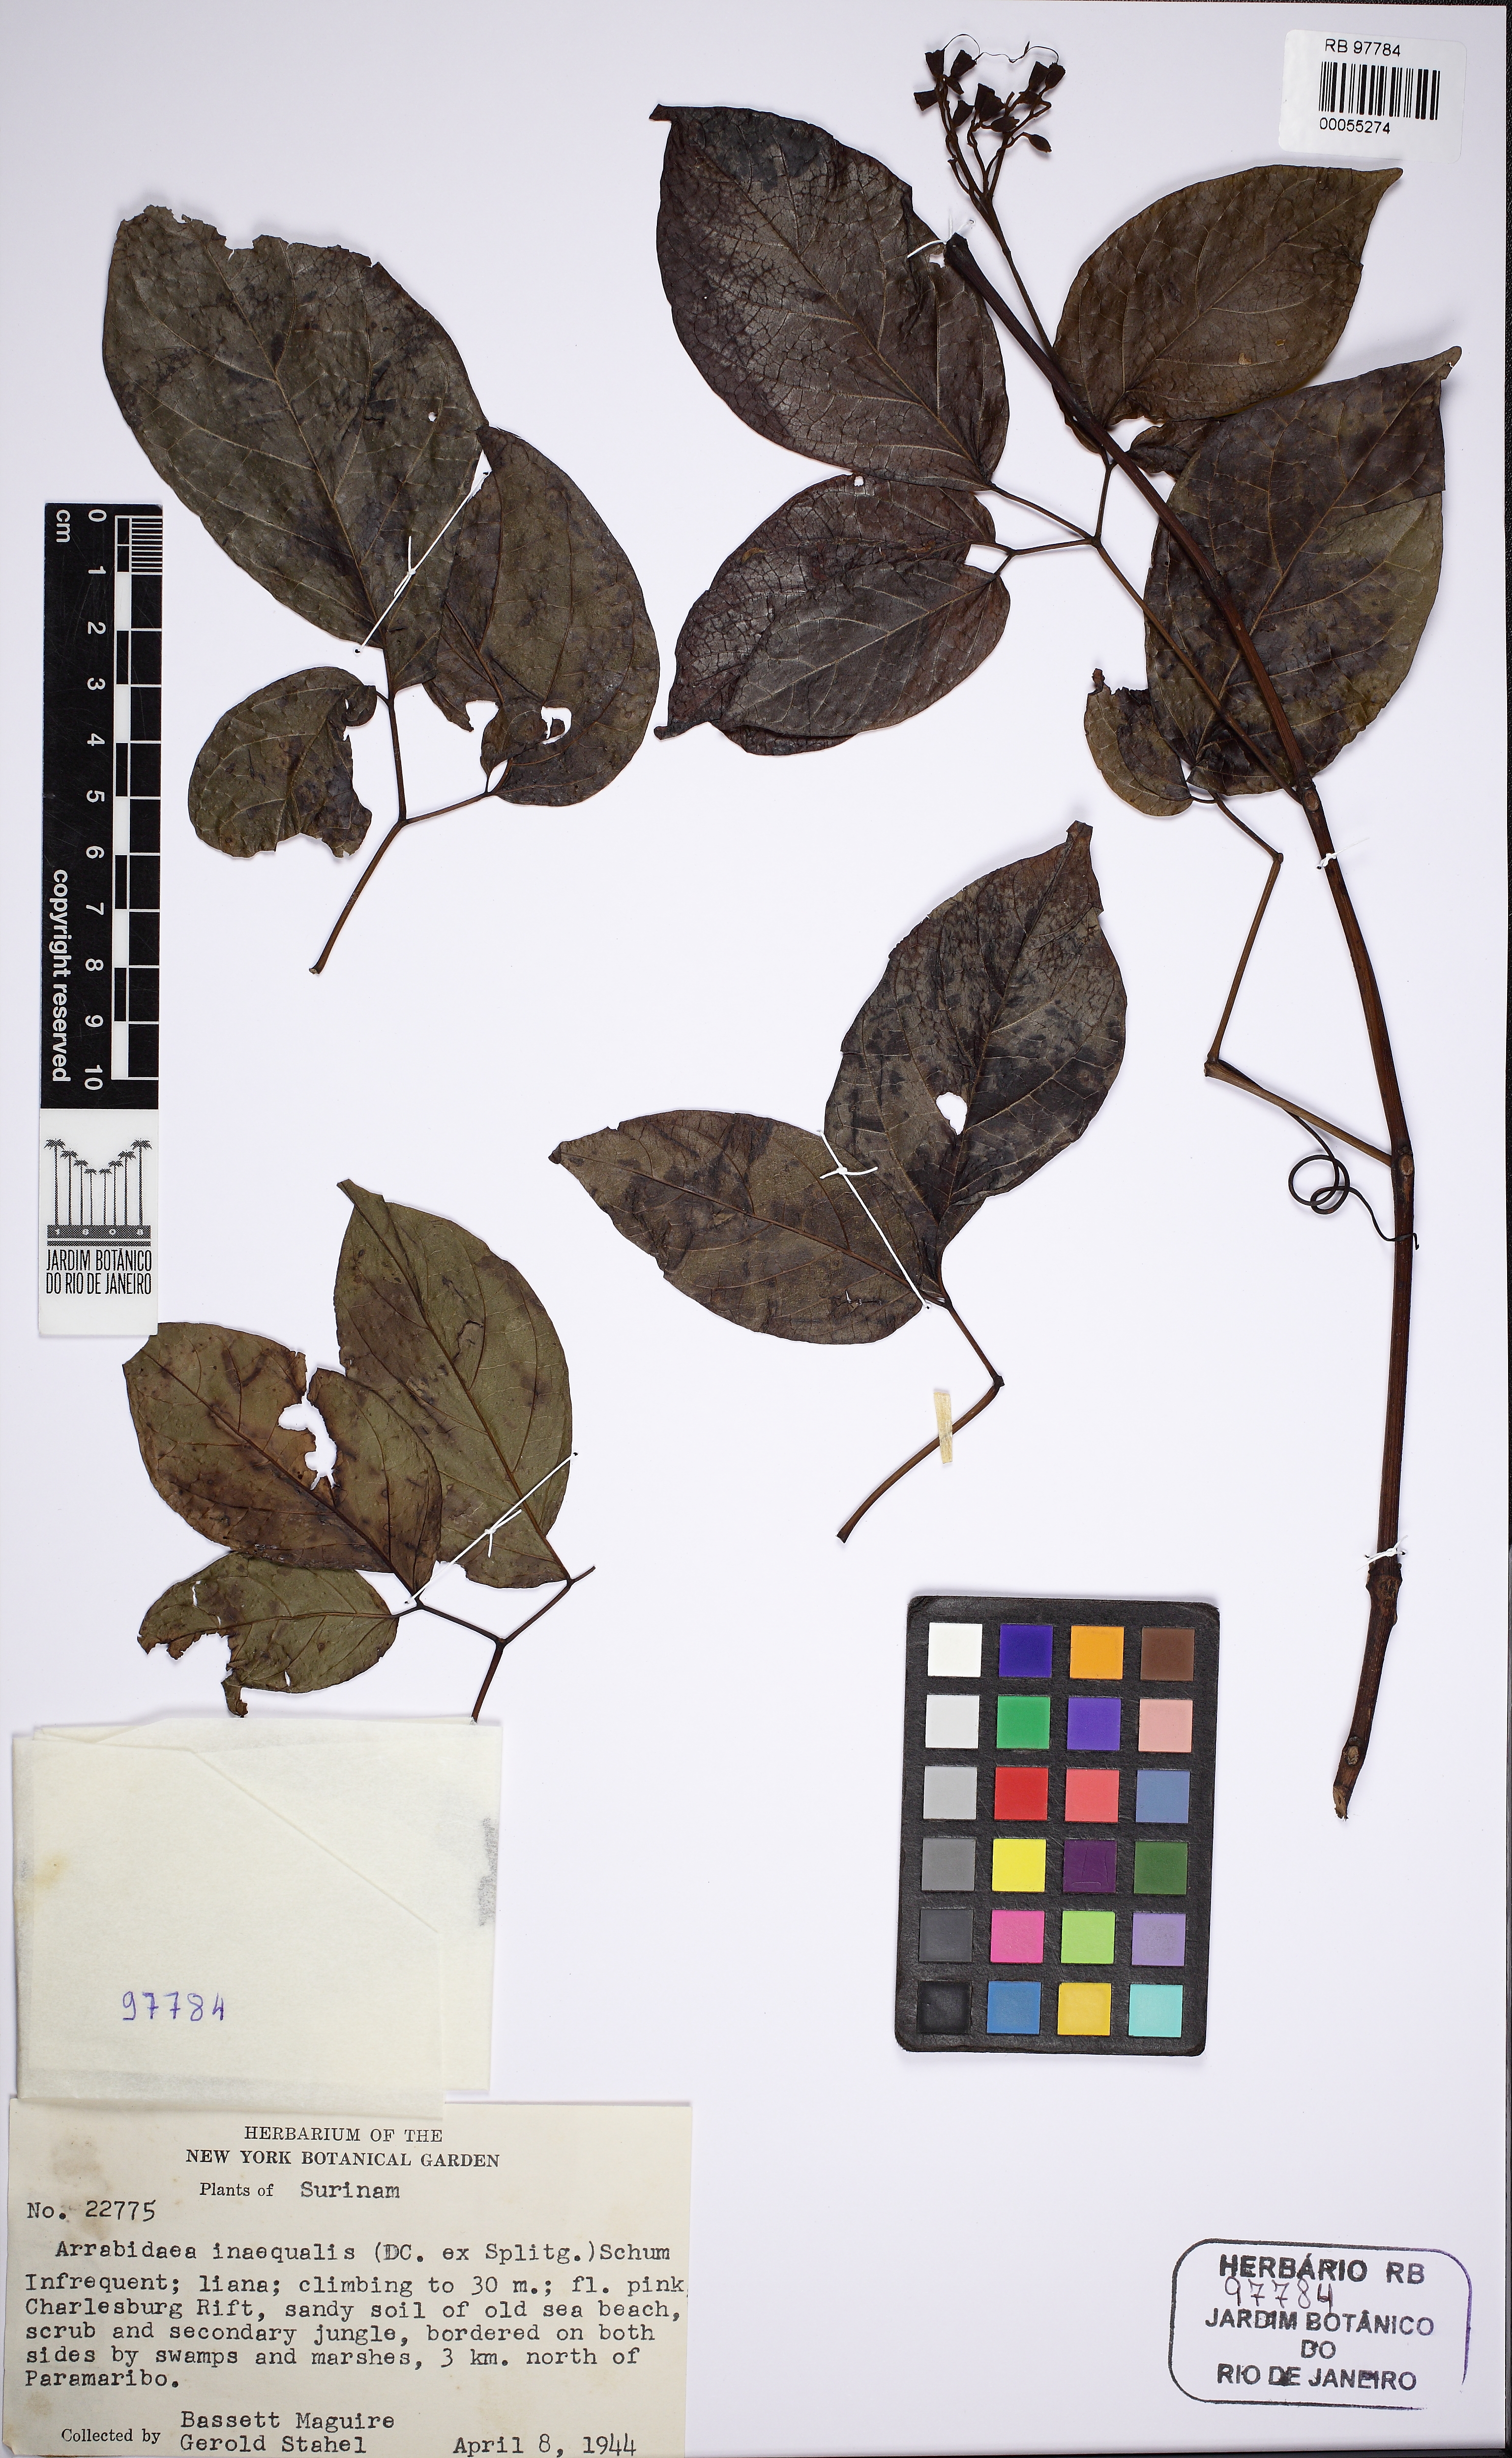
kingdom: Plantae
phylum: Tracheophyta
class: Magnoliopsida
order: Lamiales
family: Bignoniaceae
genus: Cuspidaria
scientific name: Cuspidaria inaequalis
